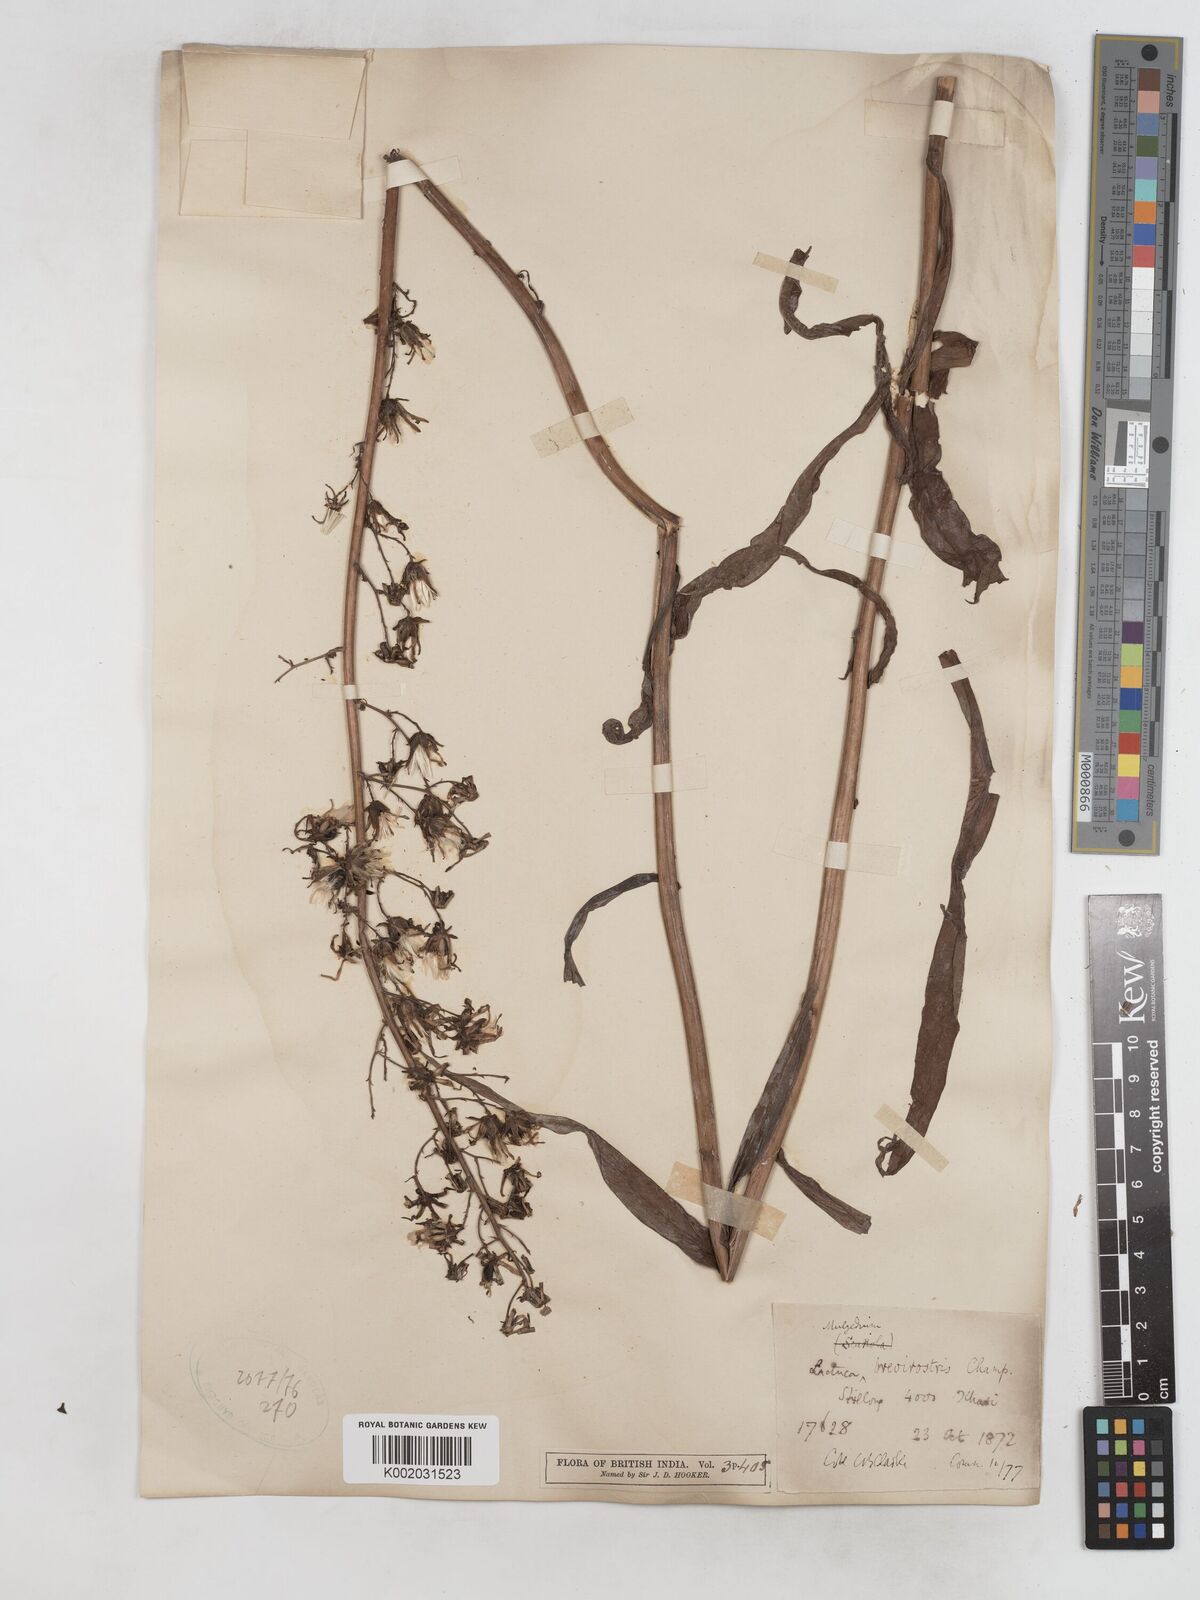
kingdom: Plantae
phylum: Tracheophyta
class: Magnoliopsida
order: Asterales
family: Asteraceae
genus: Lactuca
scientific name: Lactuca indica
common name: Wild lettuce
